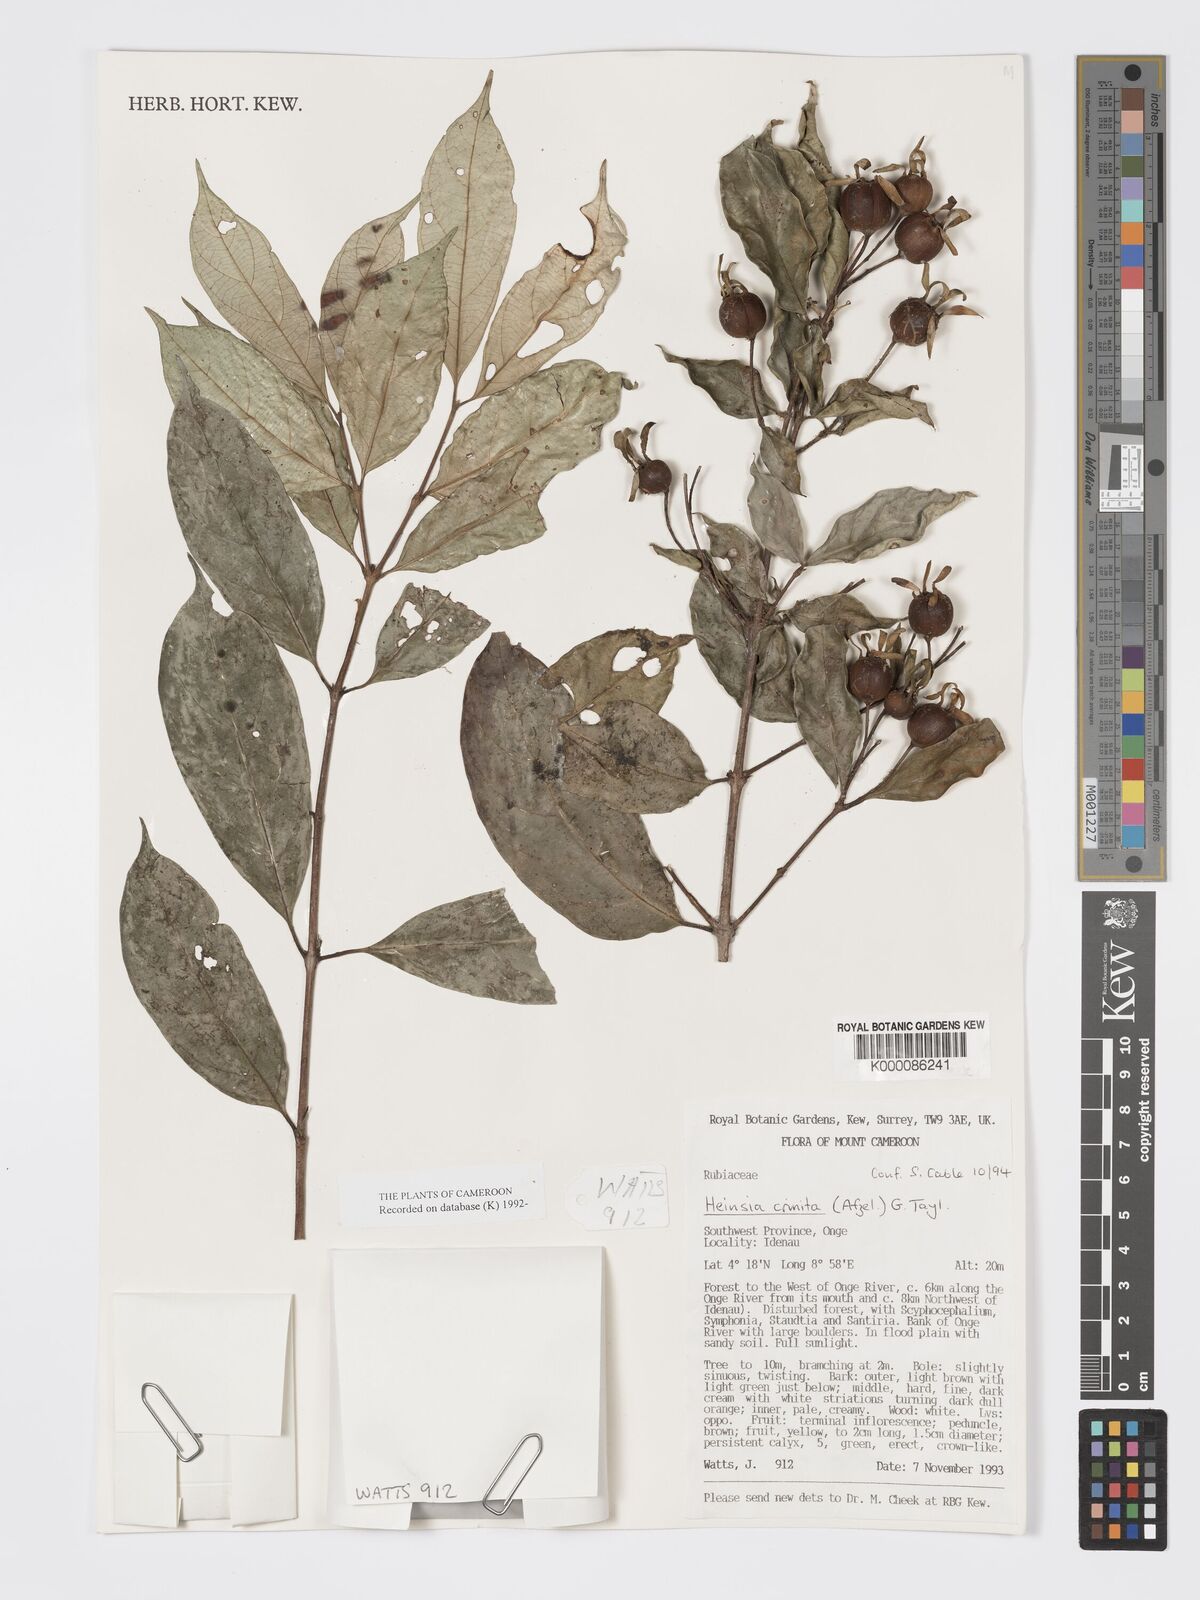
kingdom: Plantae
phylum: Tracheophyta
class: Magnoliopsida
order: Gentianales
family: Rubiaceae
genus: Heinsia
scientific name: Heinsia crinita
